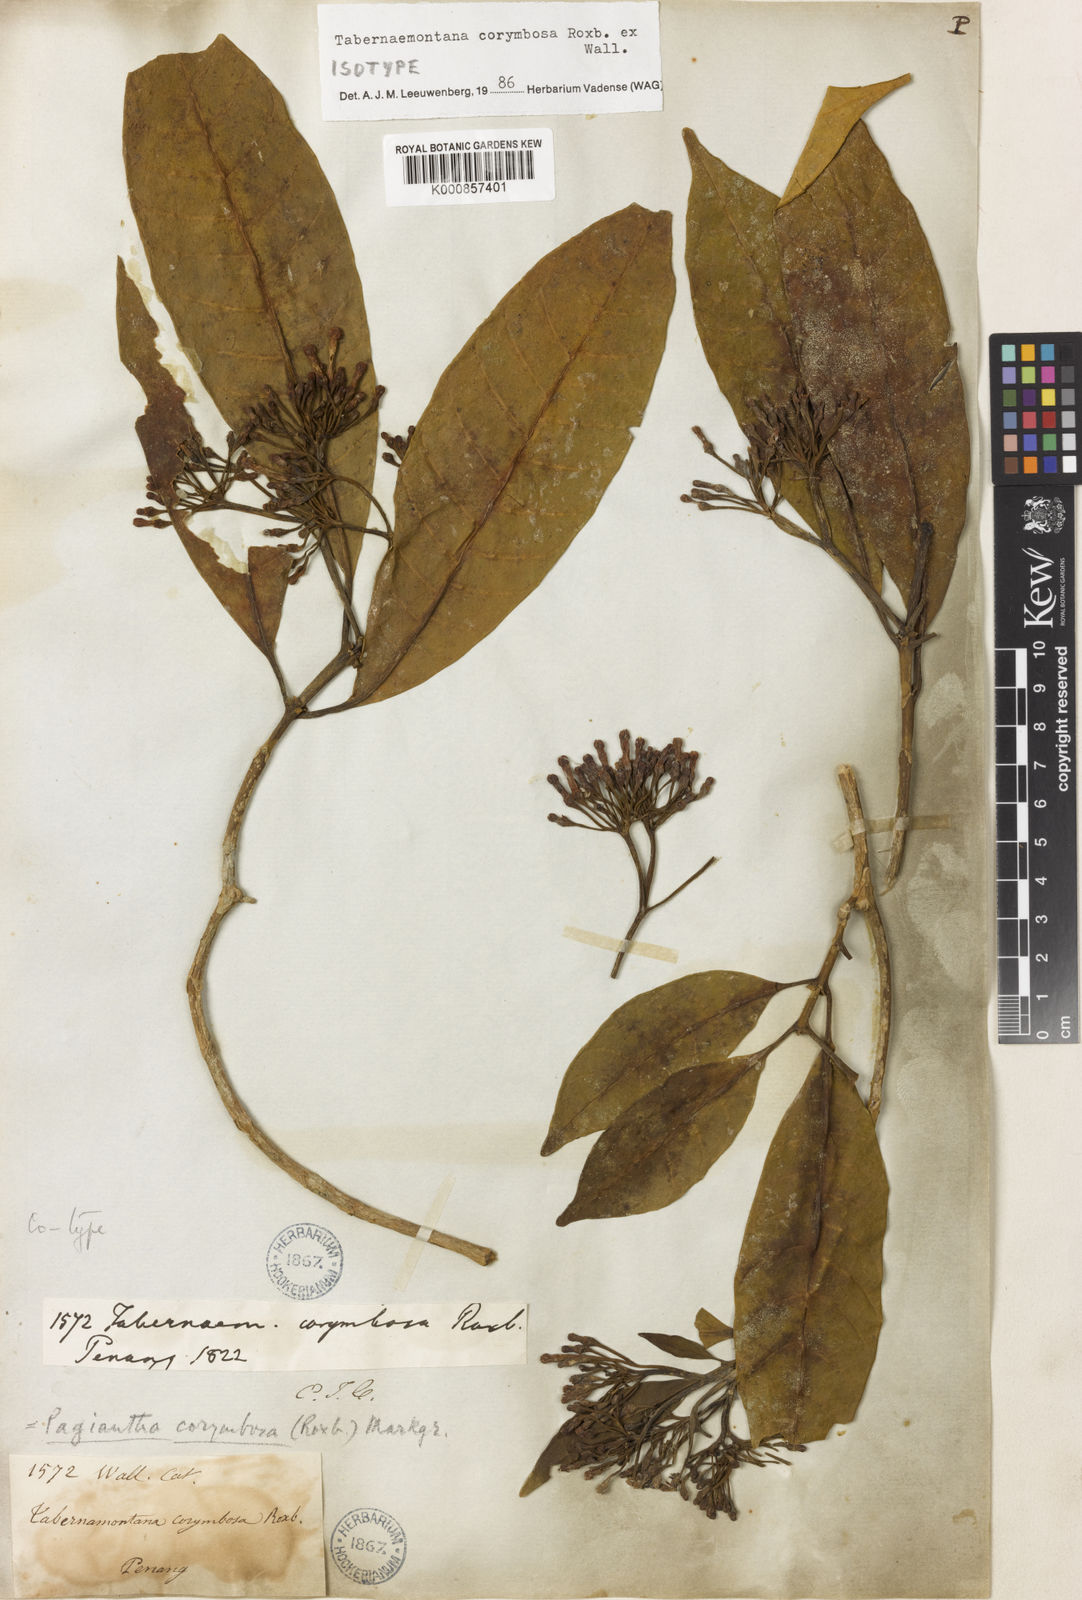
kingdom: Plantae
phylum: Tracheophyta
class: Magnoliopsida
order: Gentianales
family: Apocynaceae
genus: Tabernaemontana
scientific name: Tabernaemontana corymbosa
